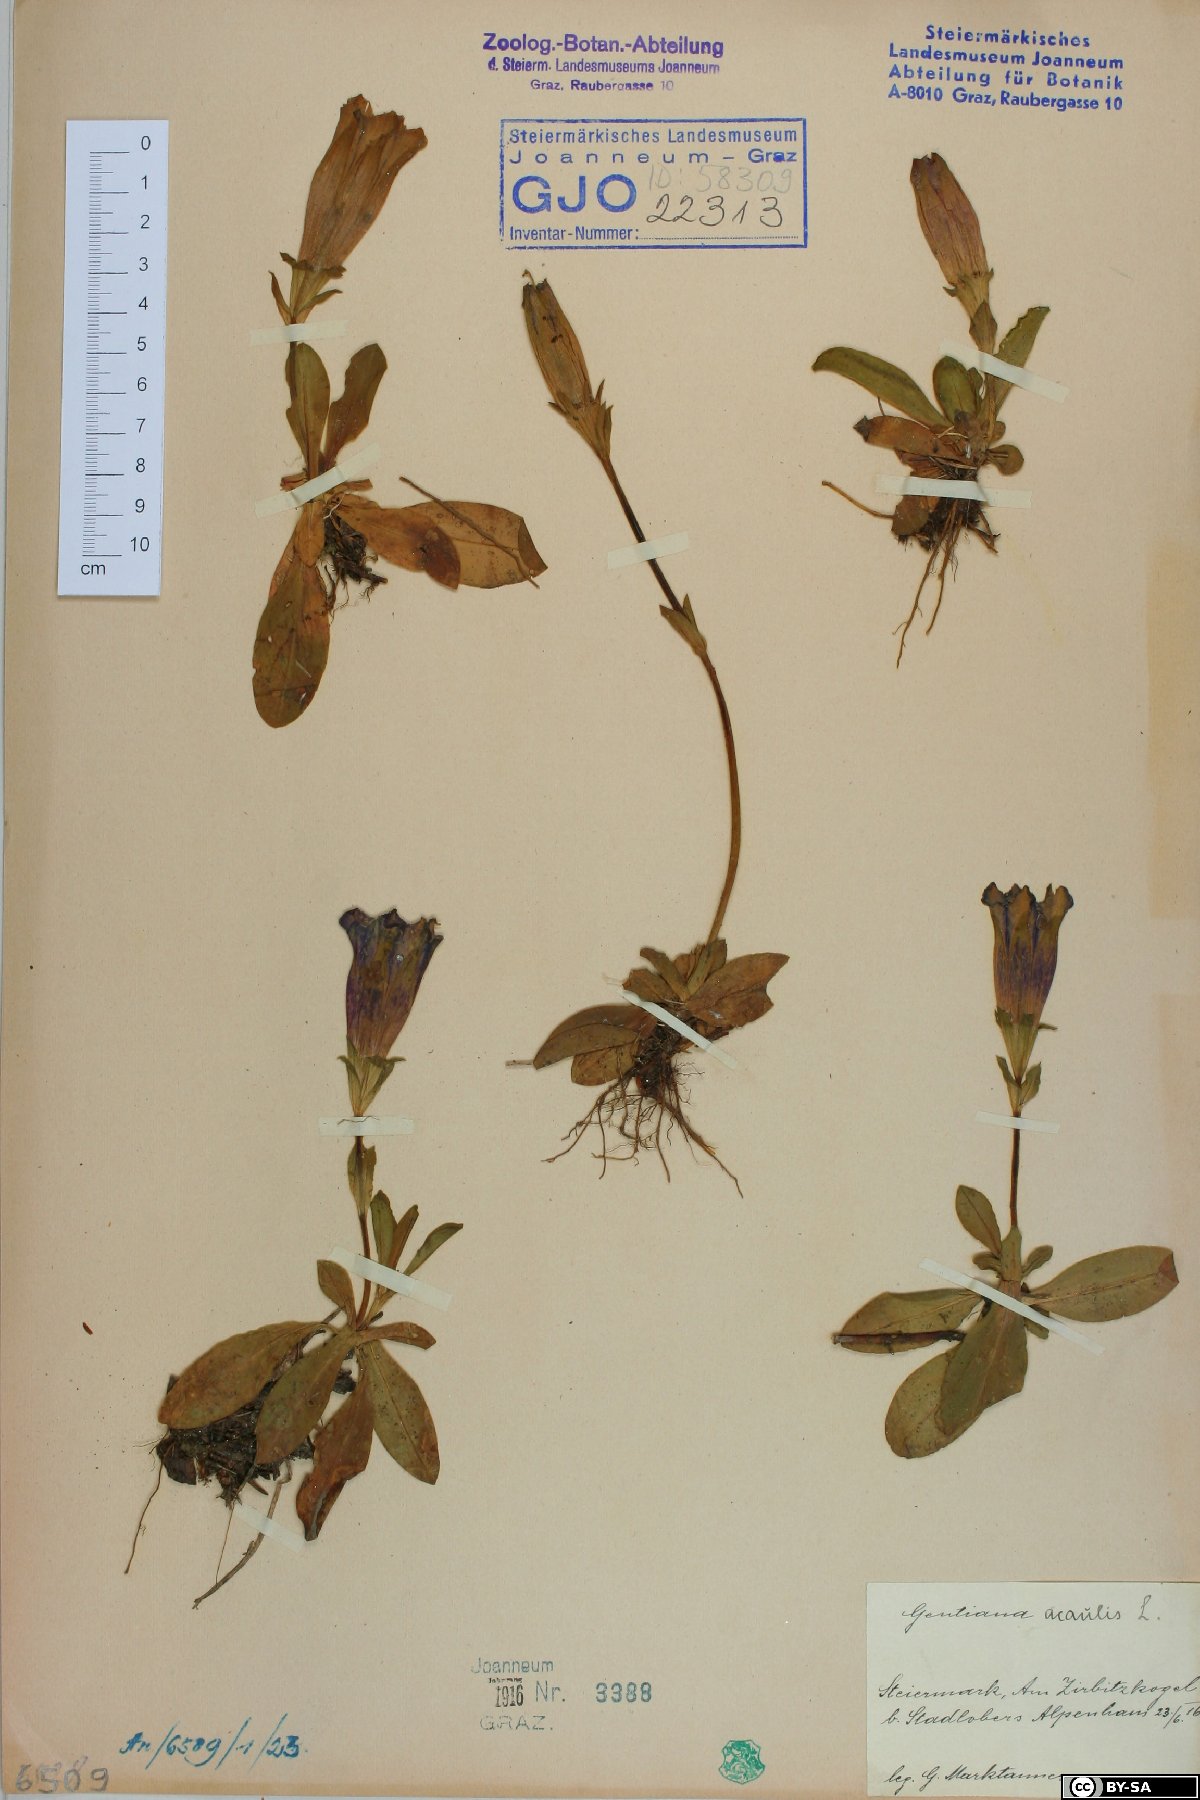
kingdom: Plantae
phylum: Tracheophyta
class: Magnoliopsida
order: Gentianales
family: Gentianaceae
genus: Gentiana
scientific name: Gentiana acaulis
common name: Trumpet gentian
